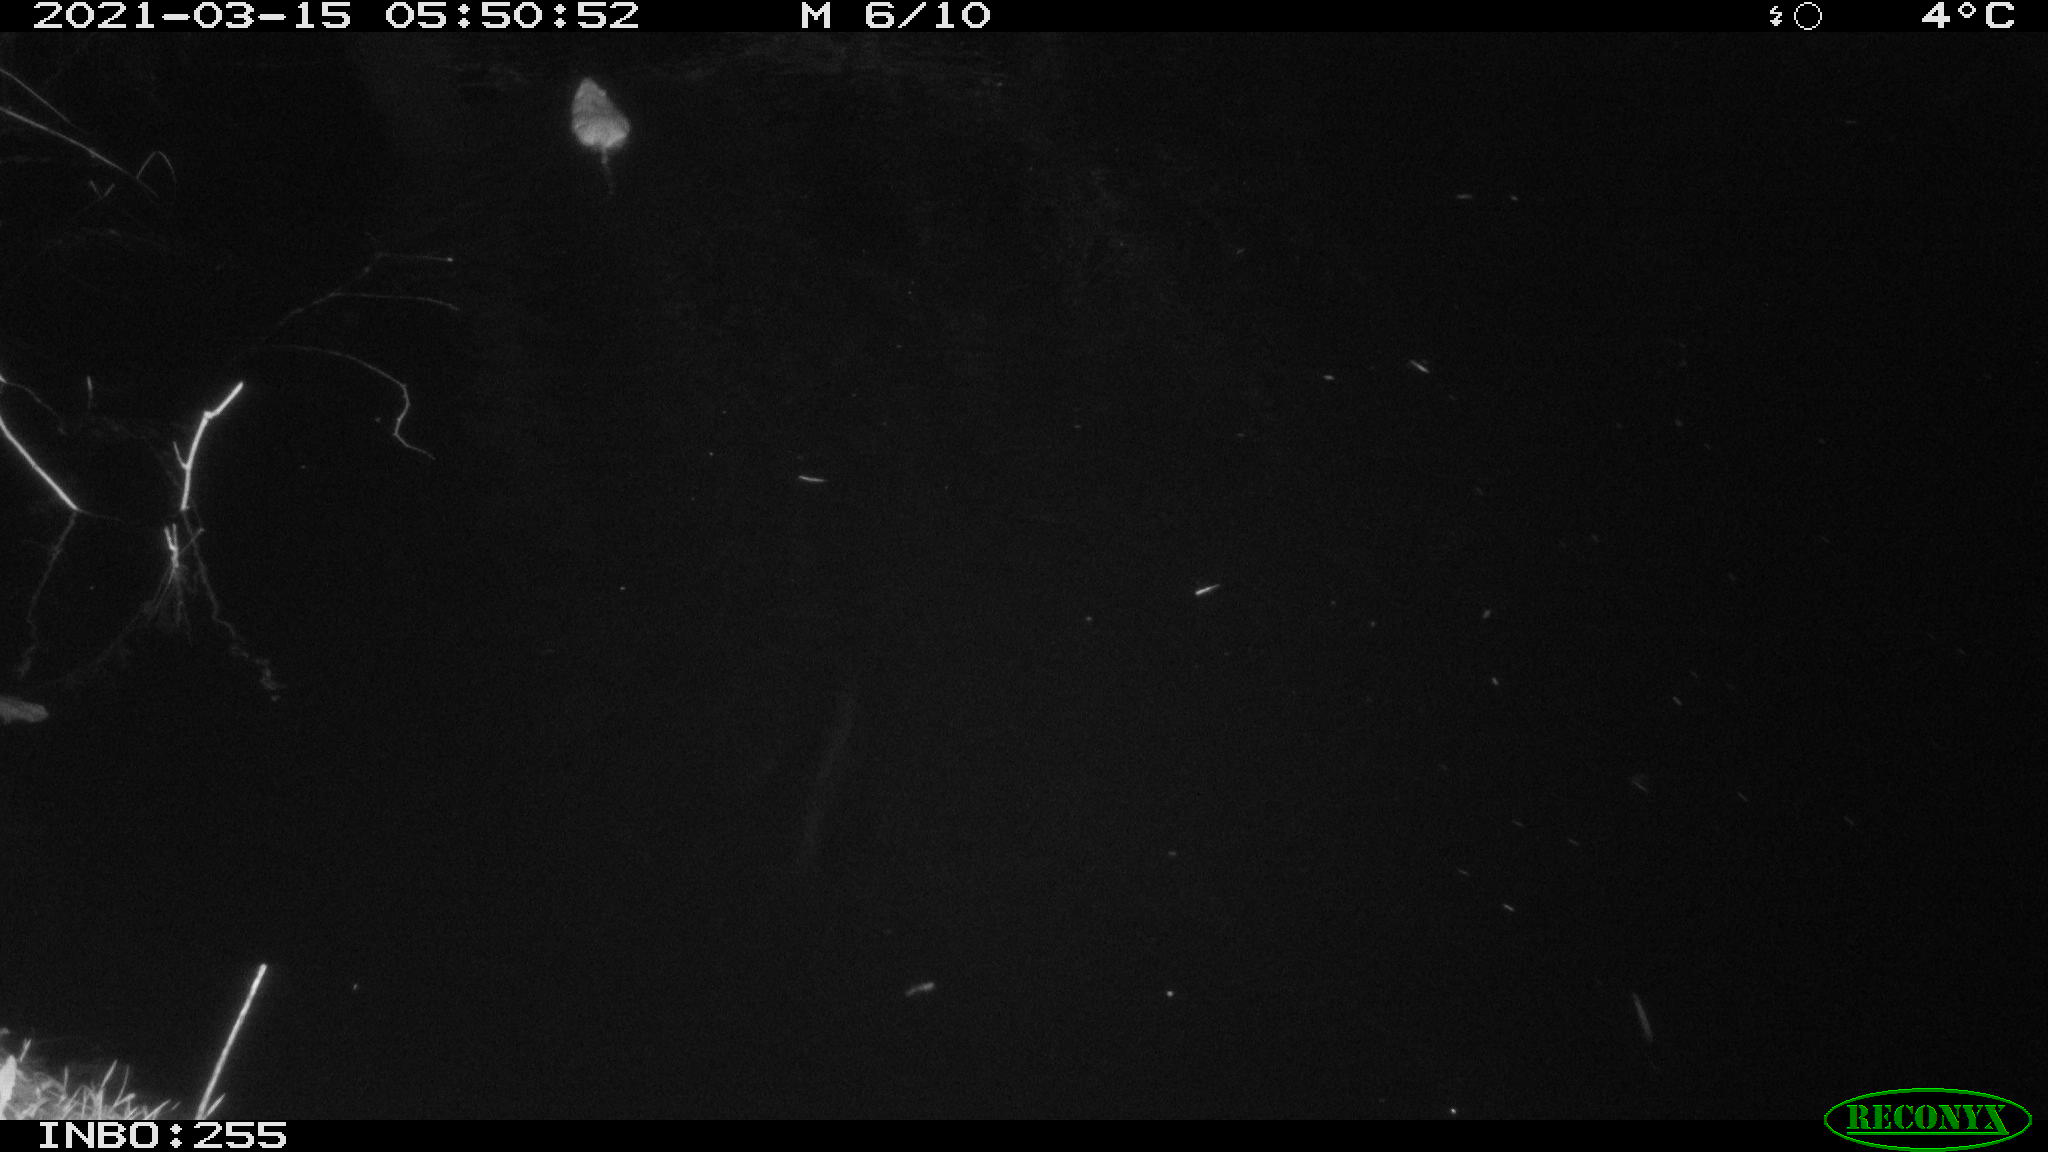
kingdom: Animalia
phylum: Chordata
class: Mammalia
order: Rodentia
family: Muridae
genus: Rattus
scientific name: Rattus norvegicus
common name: Brown rat
